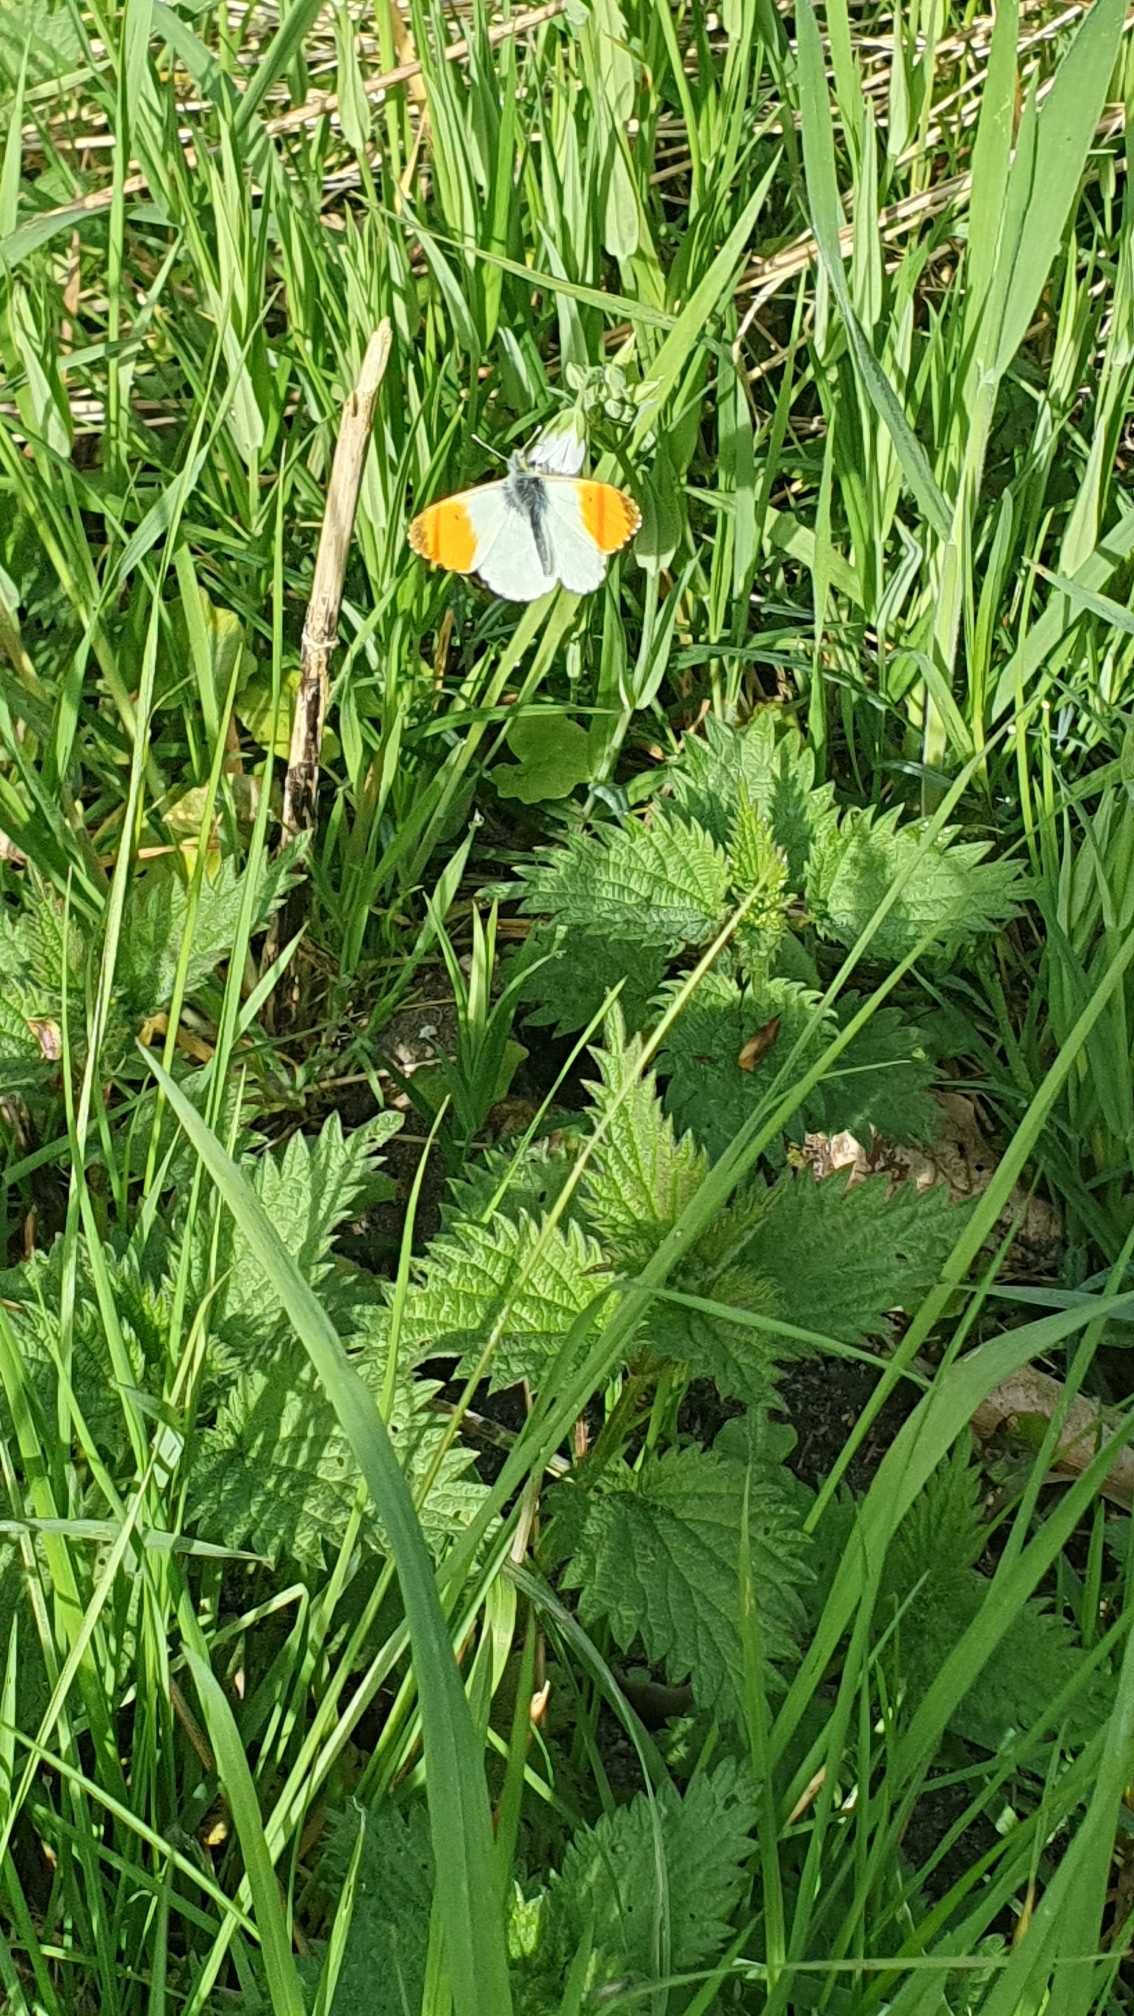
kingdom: Animalia
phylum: Arthropoda
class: Insecta
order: Lepidoptera
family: Pieridae
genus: Anthocharis
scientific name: Anthocharis cardamines
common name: Aurora
